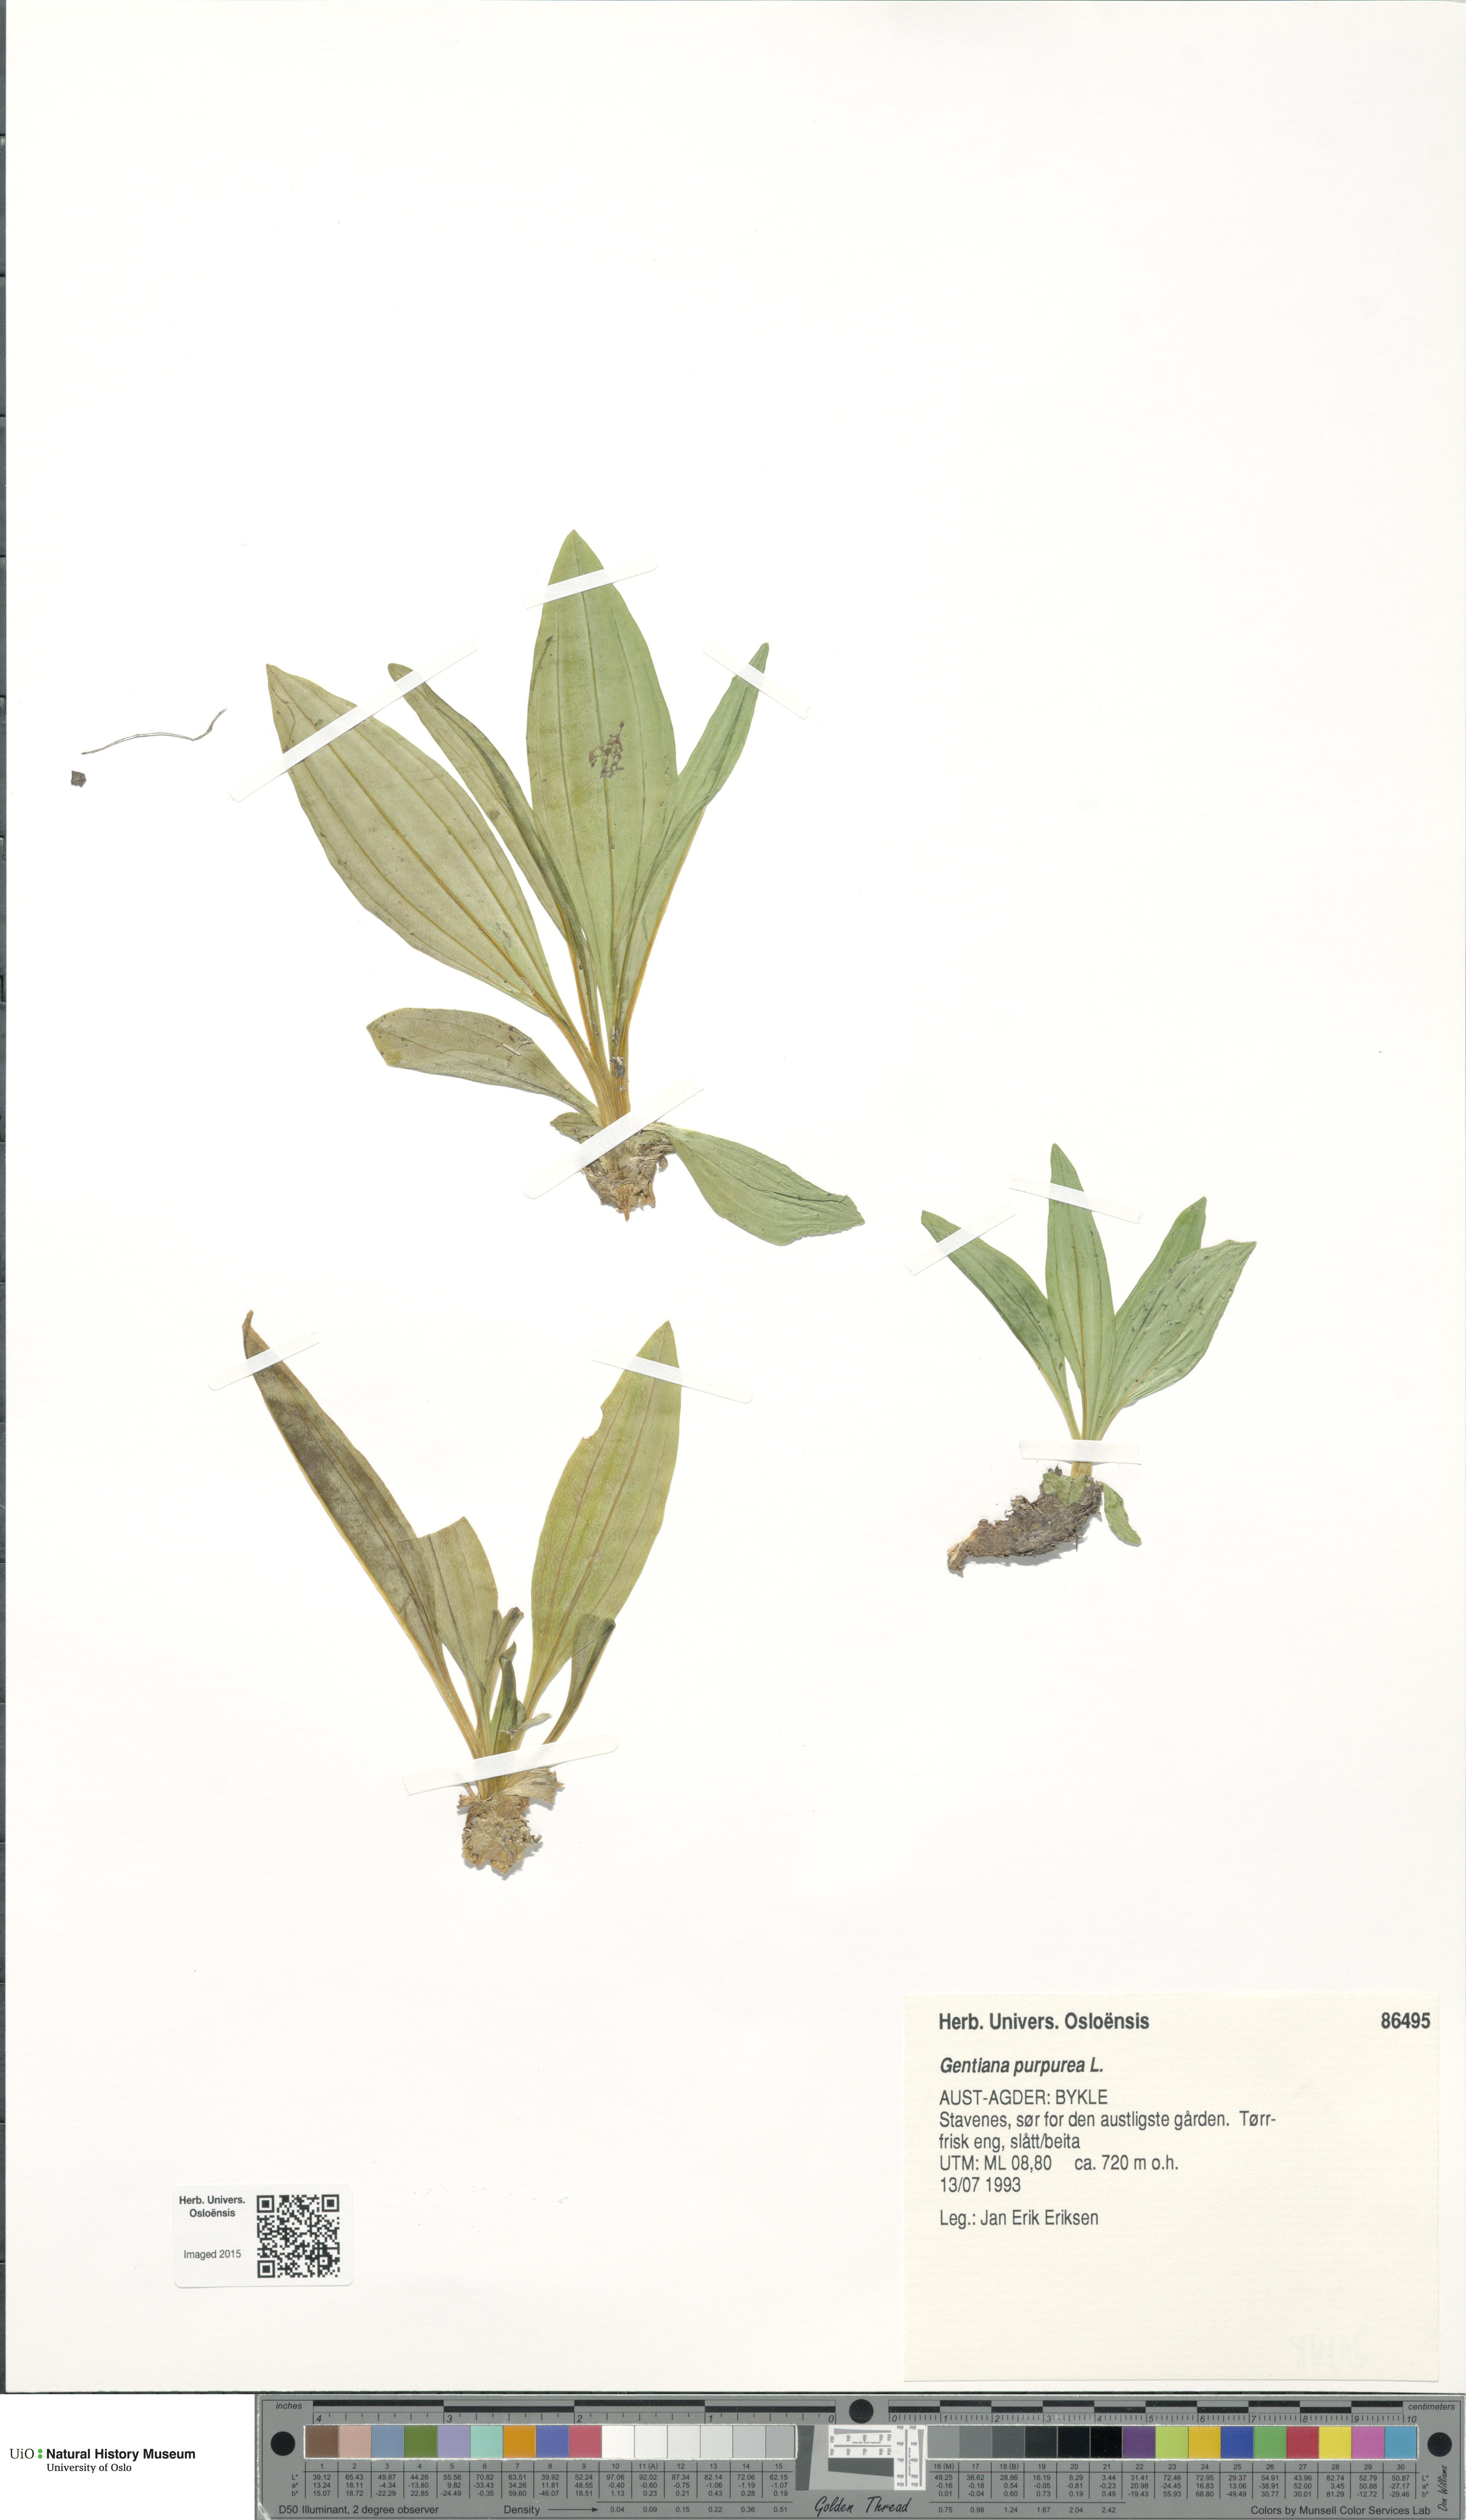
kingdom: Plantae
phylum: Tracheophyta
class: Magnoliopsida
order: Gentianales
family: Gentianaceae
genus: Gentiana
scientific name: Gentiana purpurea
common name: Purple gentian
